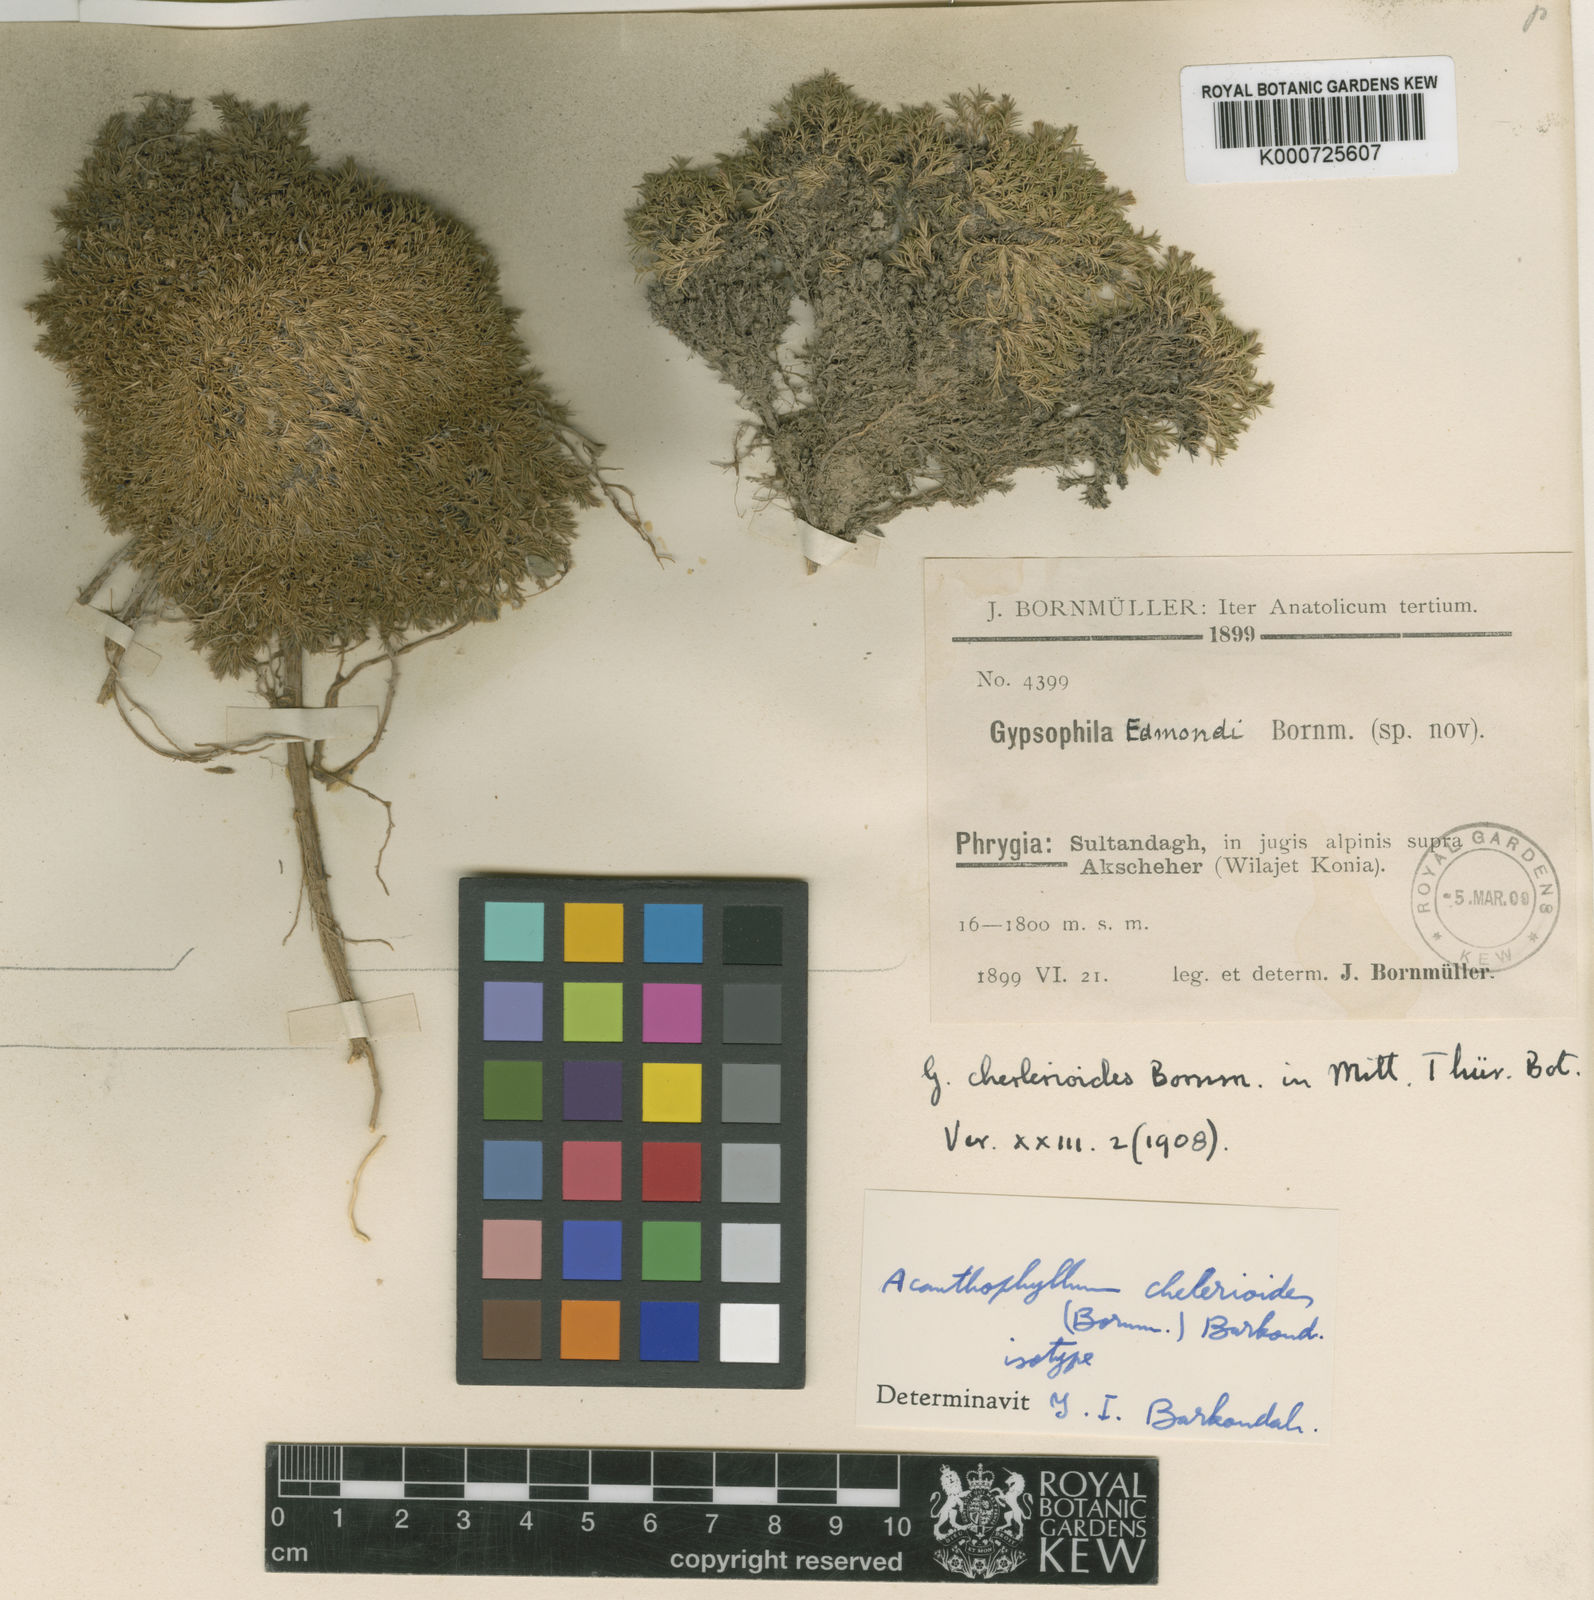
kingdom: Plantae
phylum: Tracheophyta
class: Magnoliopsida
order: Caryophyllales
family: Caryophyllaceae
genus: Acanthophyllum
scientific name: Acanthophyllum
